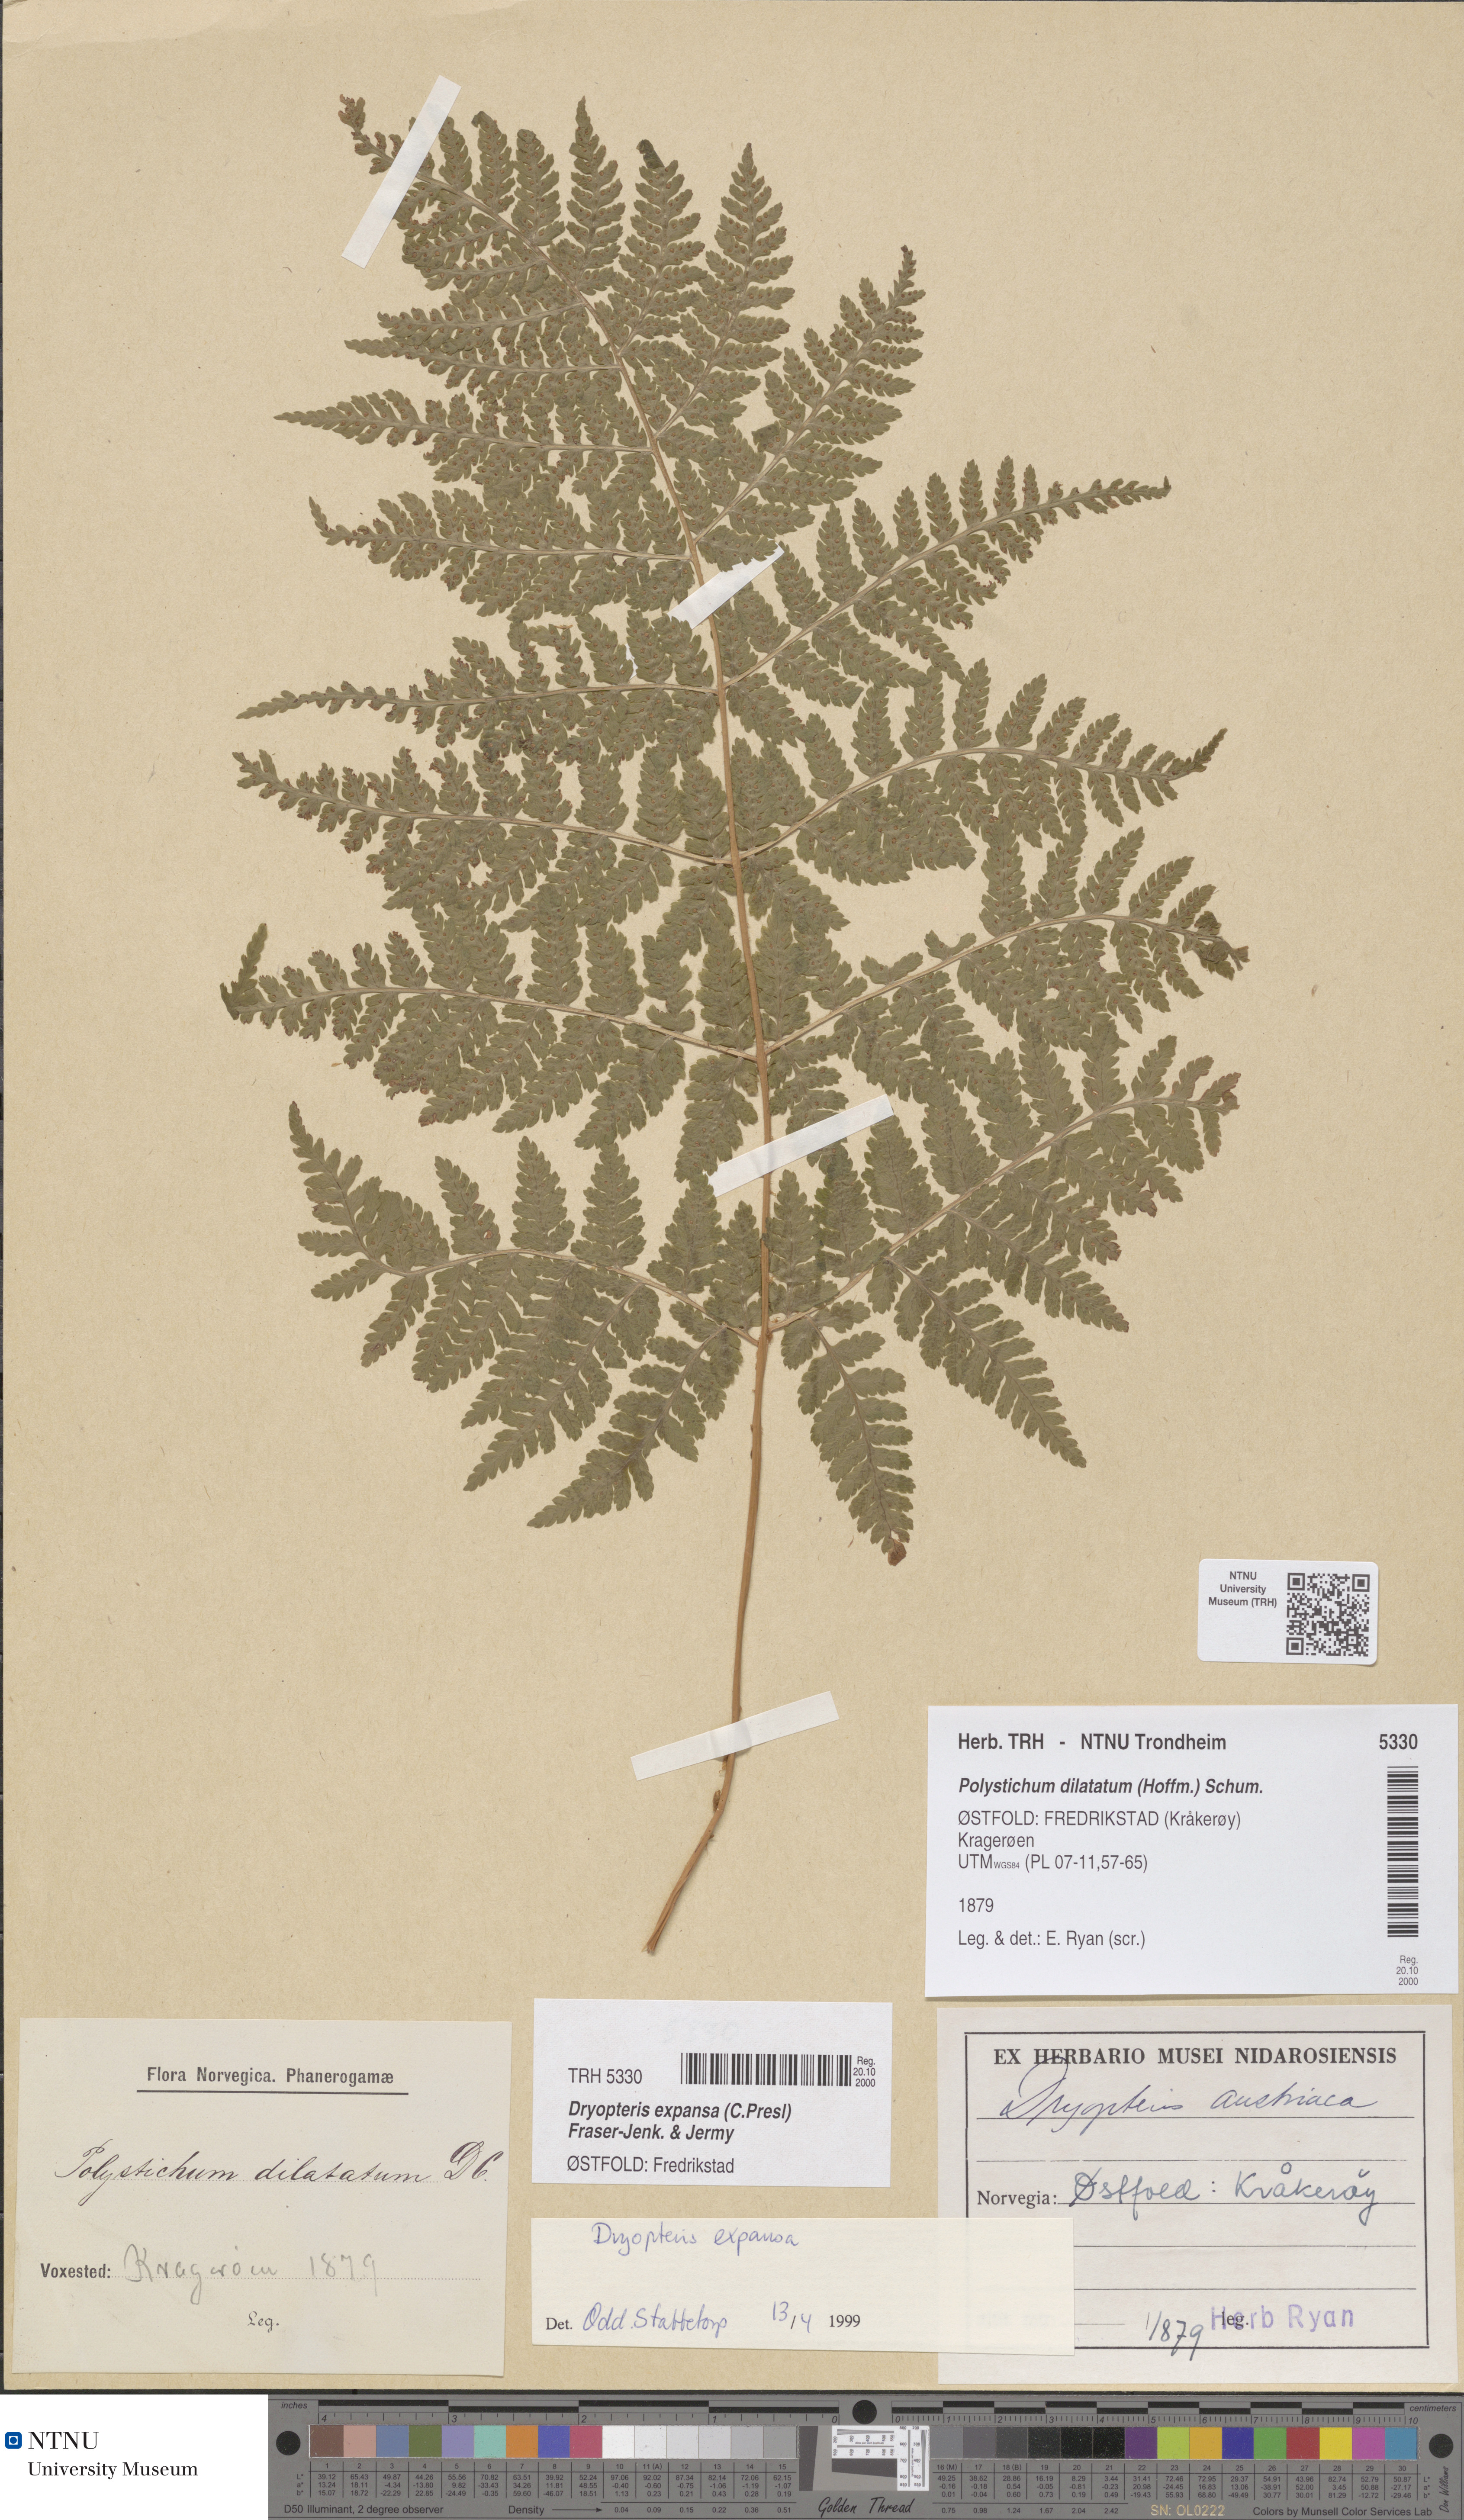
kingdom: Plantae
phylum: Tracheophyta
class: Polypodiopsida
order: Polypodiales
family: Dryopteridaceae
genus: Dryopteris
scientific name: Dryopteris expansa
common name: Northern buckler fern
